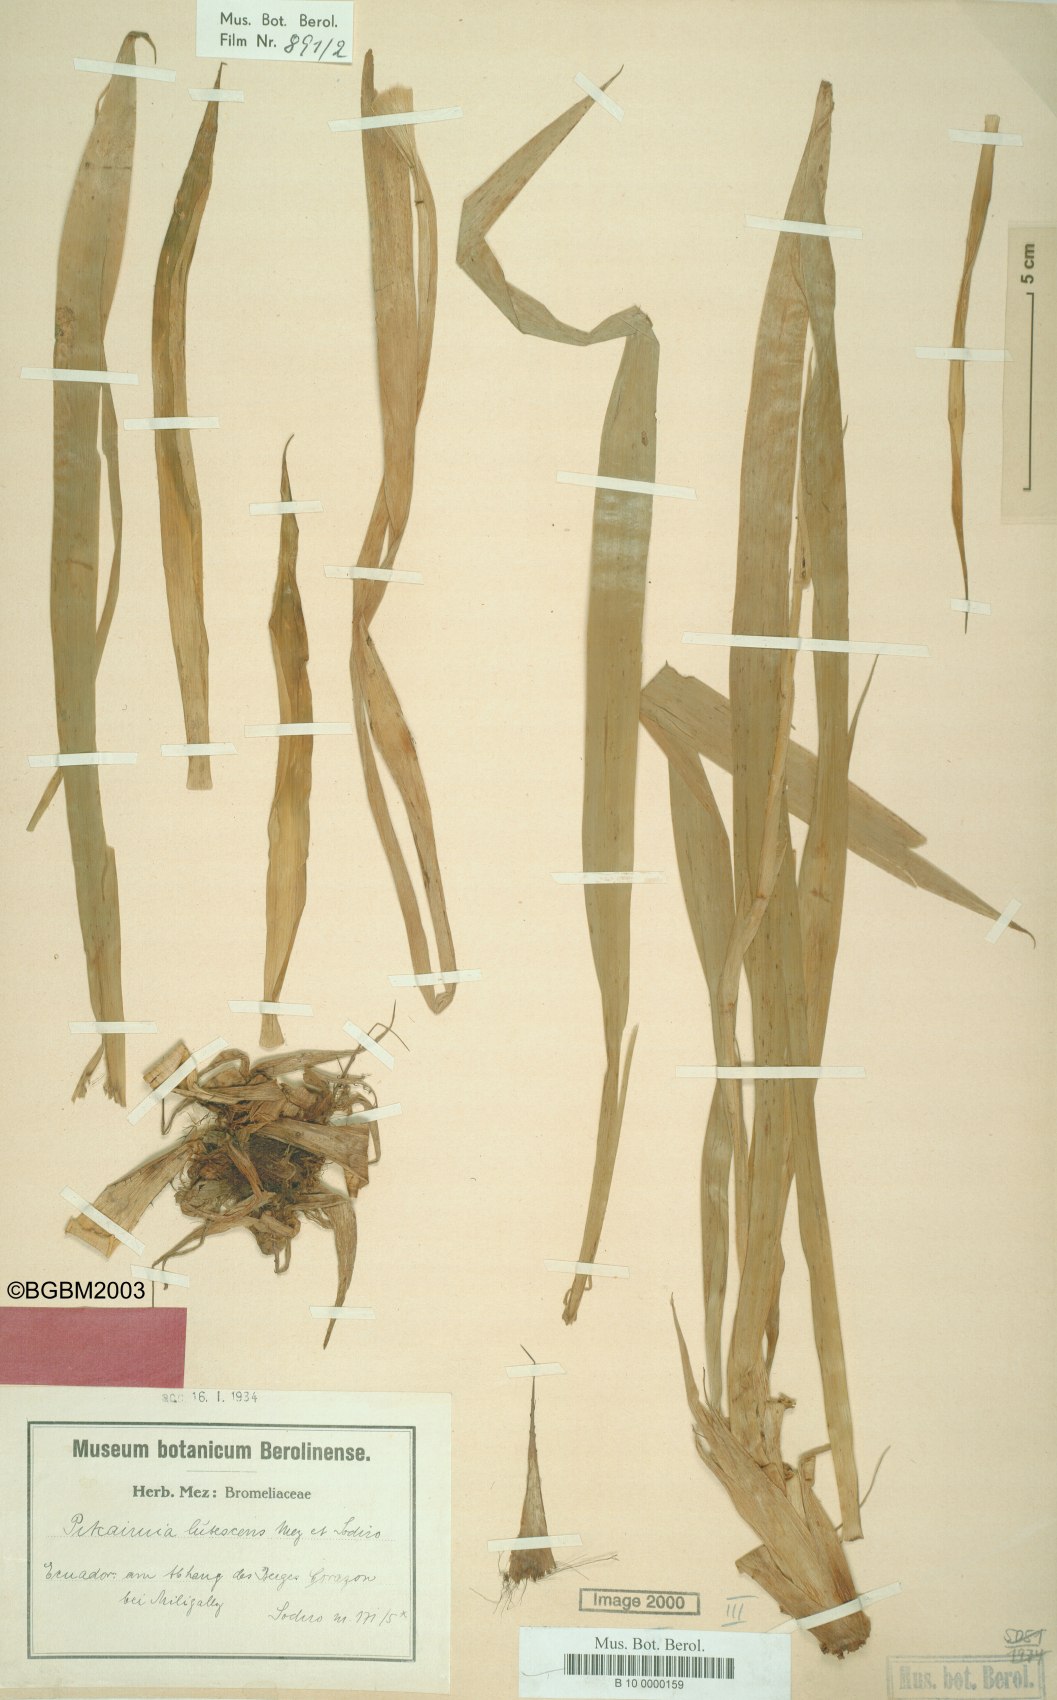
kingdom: Plantae
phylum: Tracheophyta
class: Liliopsida
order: Poales
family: Bromeliaceae
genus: Pitcairnia
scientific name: Pitcairnia lutescens
